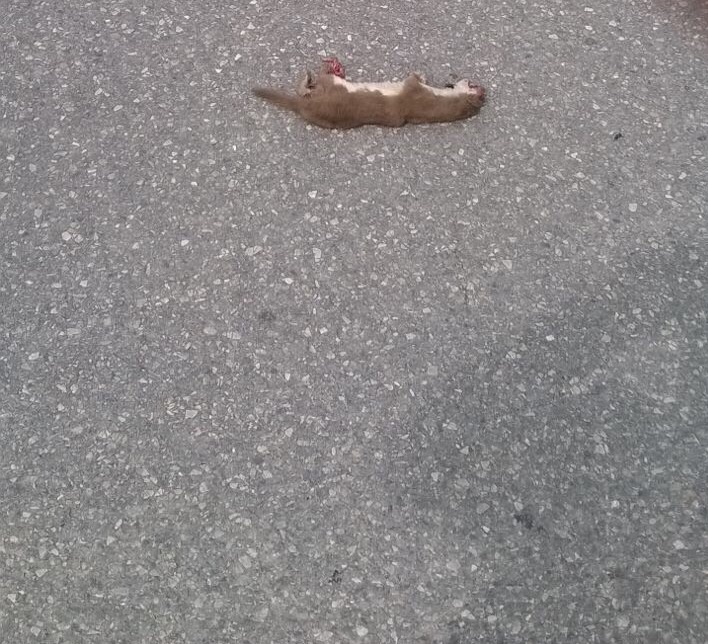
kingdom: Animalia
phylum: Chordata
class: Mammalia
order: Carnivora
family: Mustelidae
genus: Mustela
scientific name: Mustela nivalis
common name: Least weasel
